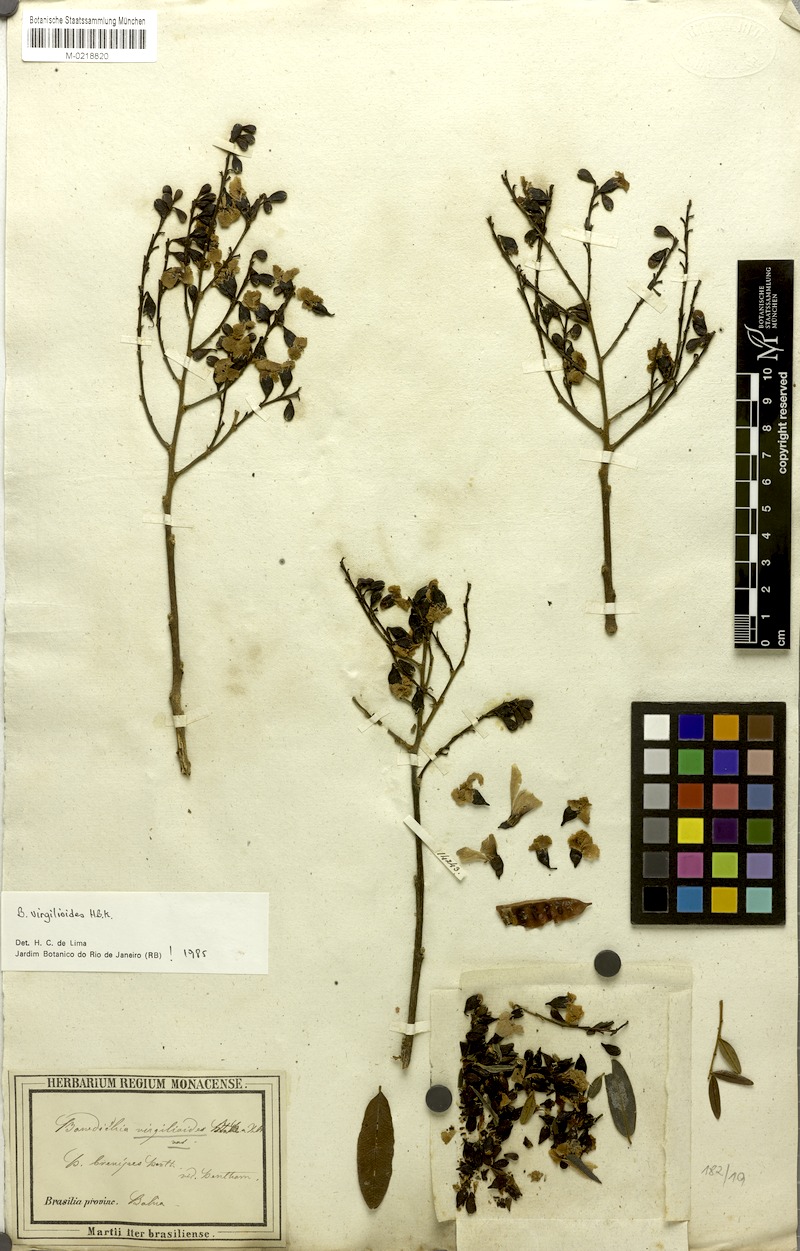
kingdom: Plantae
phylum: Tracheophyta
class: Magnoliopsida
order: Fabales
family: Fabaceae
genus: Bowdichia
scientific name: Bowdichia virgilioides
